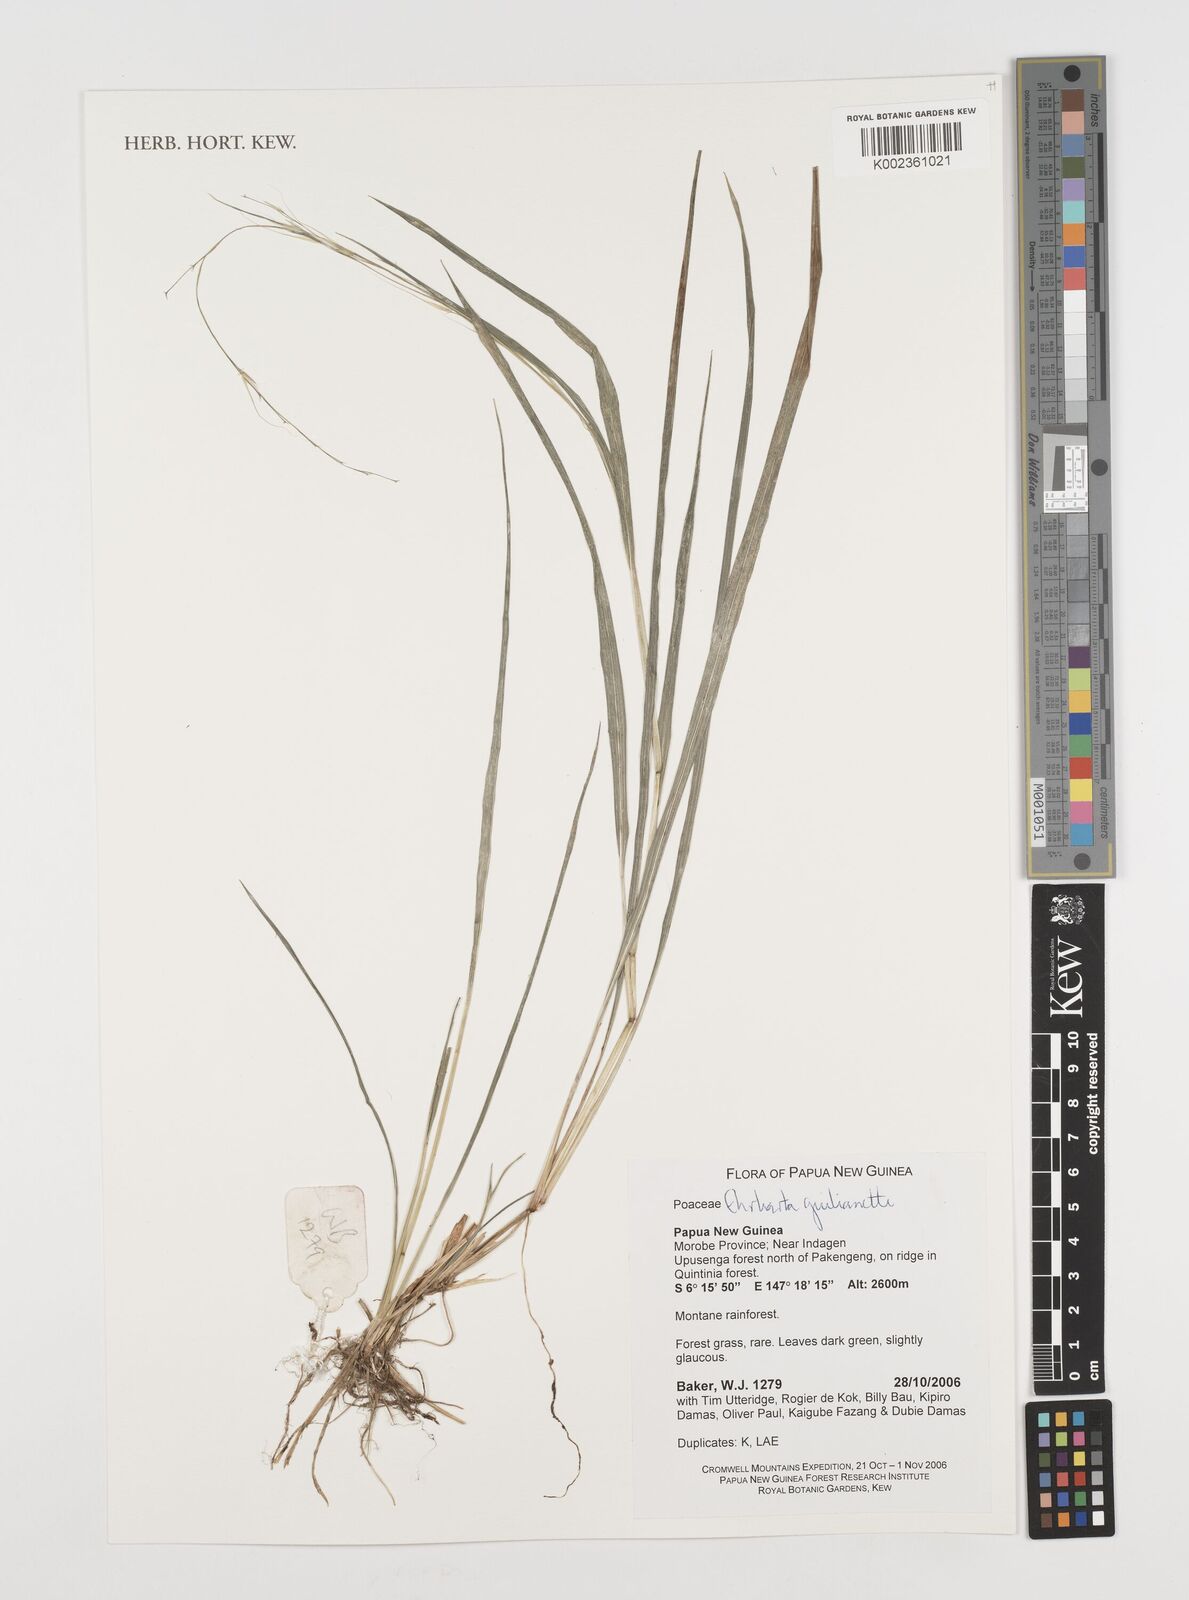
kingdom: Plantae
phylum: Tracheophyta
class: Liliopsida
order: Poales
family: Poaceae
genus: Ehrharta
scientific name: Ehrharta diplax
